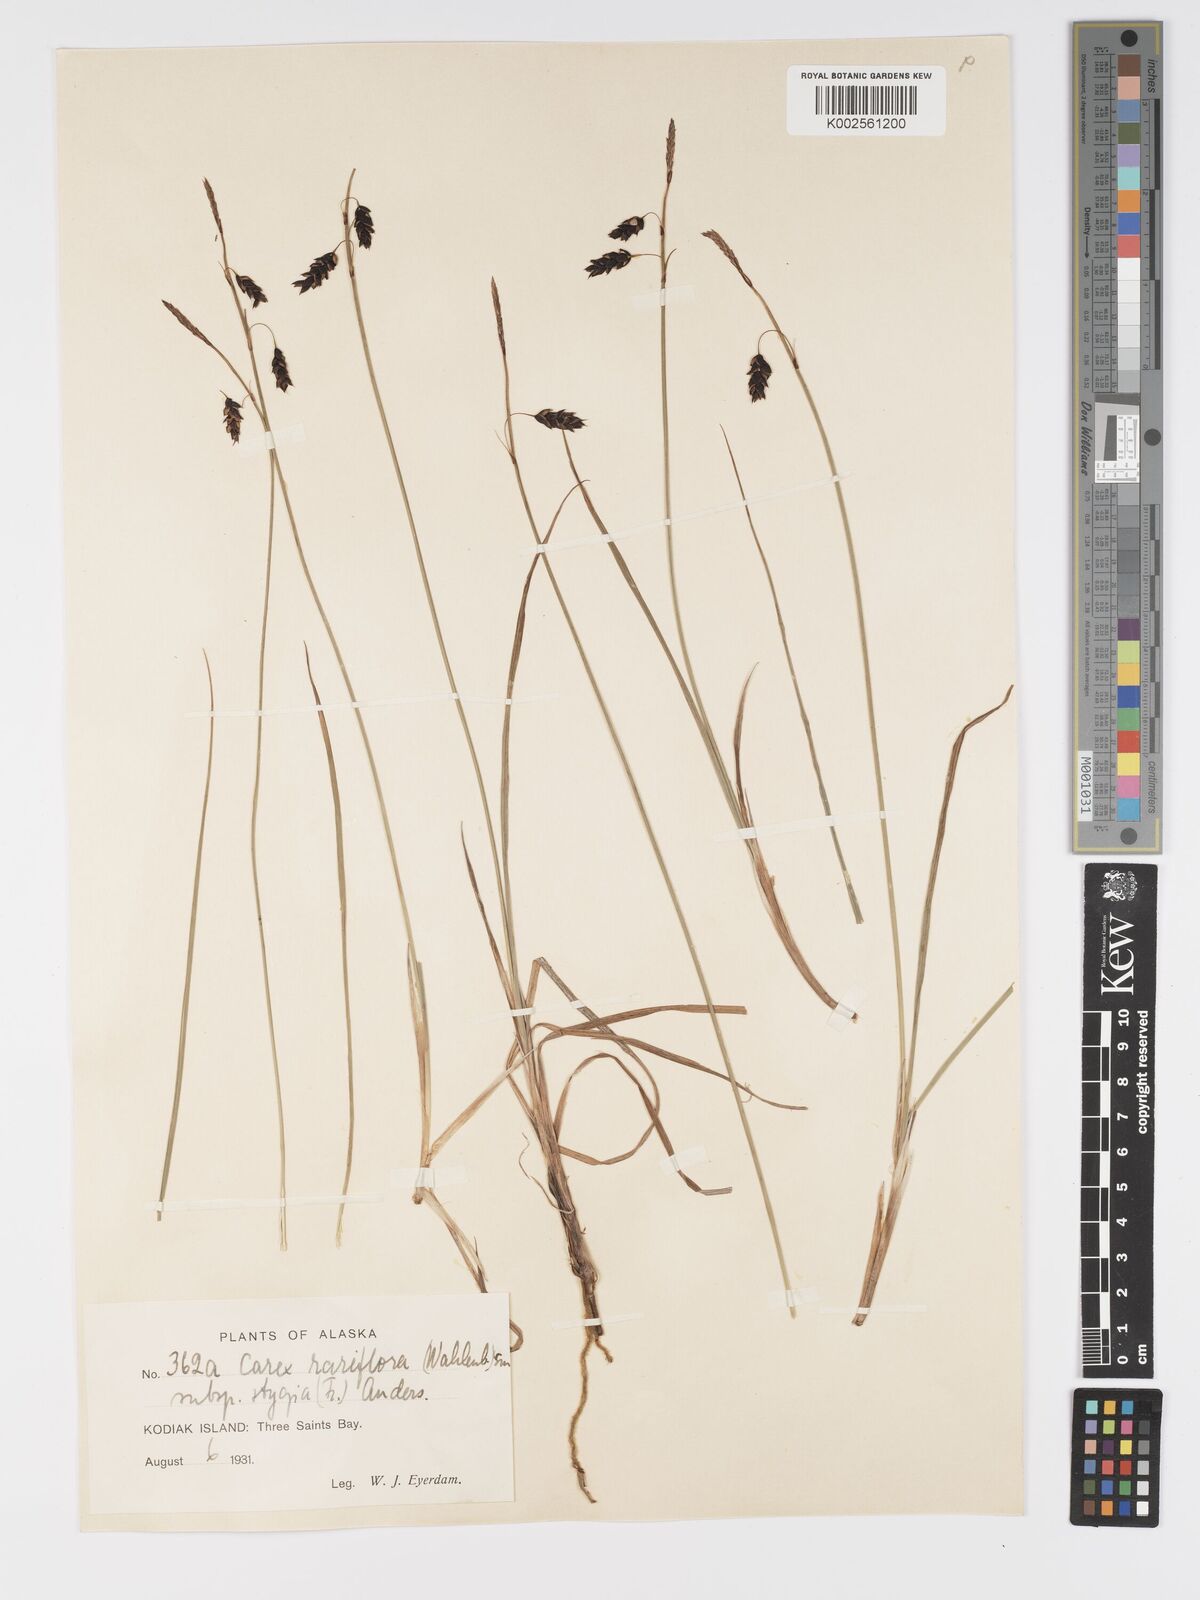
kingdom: Plantae
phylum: Tracheophyta
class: Liliopsida
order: Poales
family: Cyperaceae
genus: Carex
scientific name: Carex stygia
